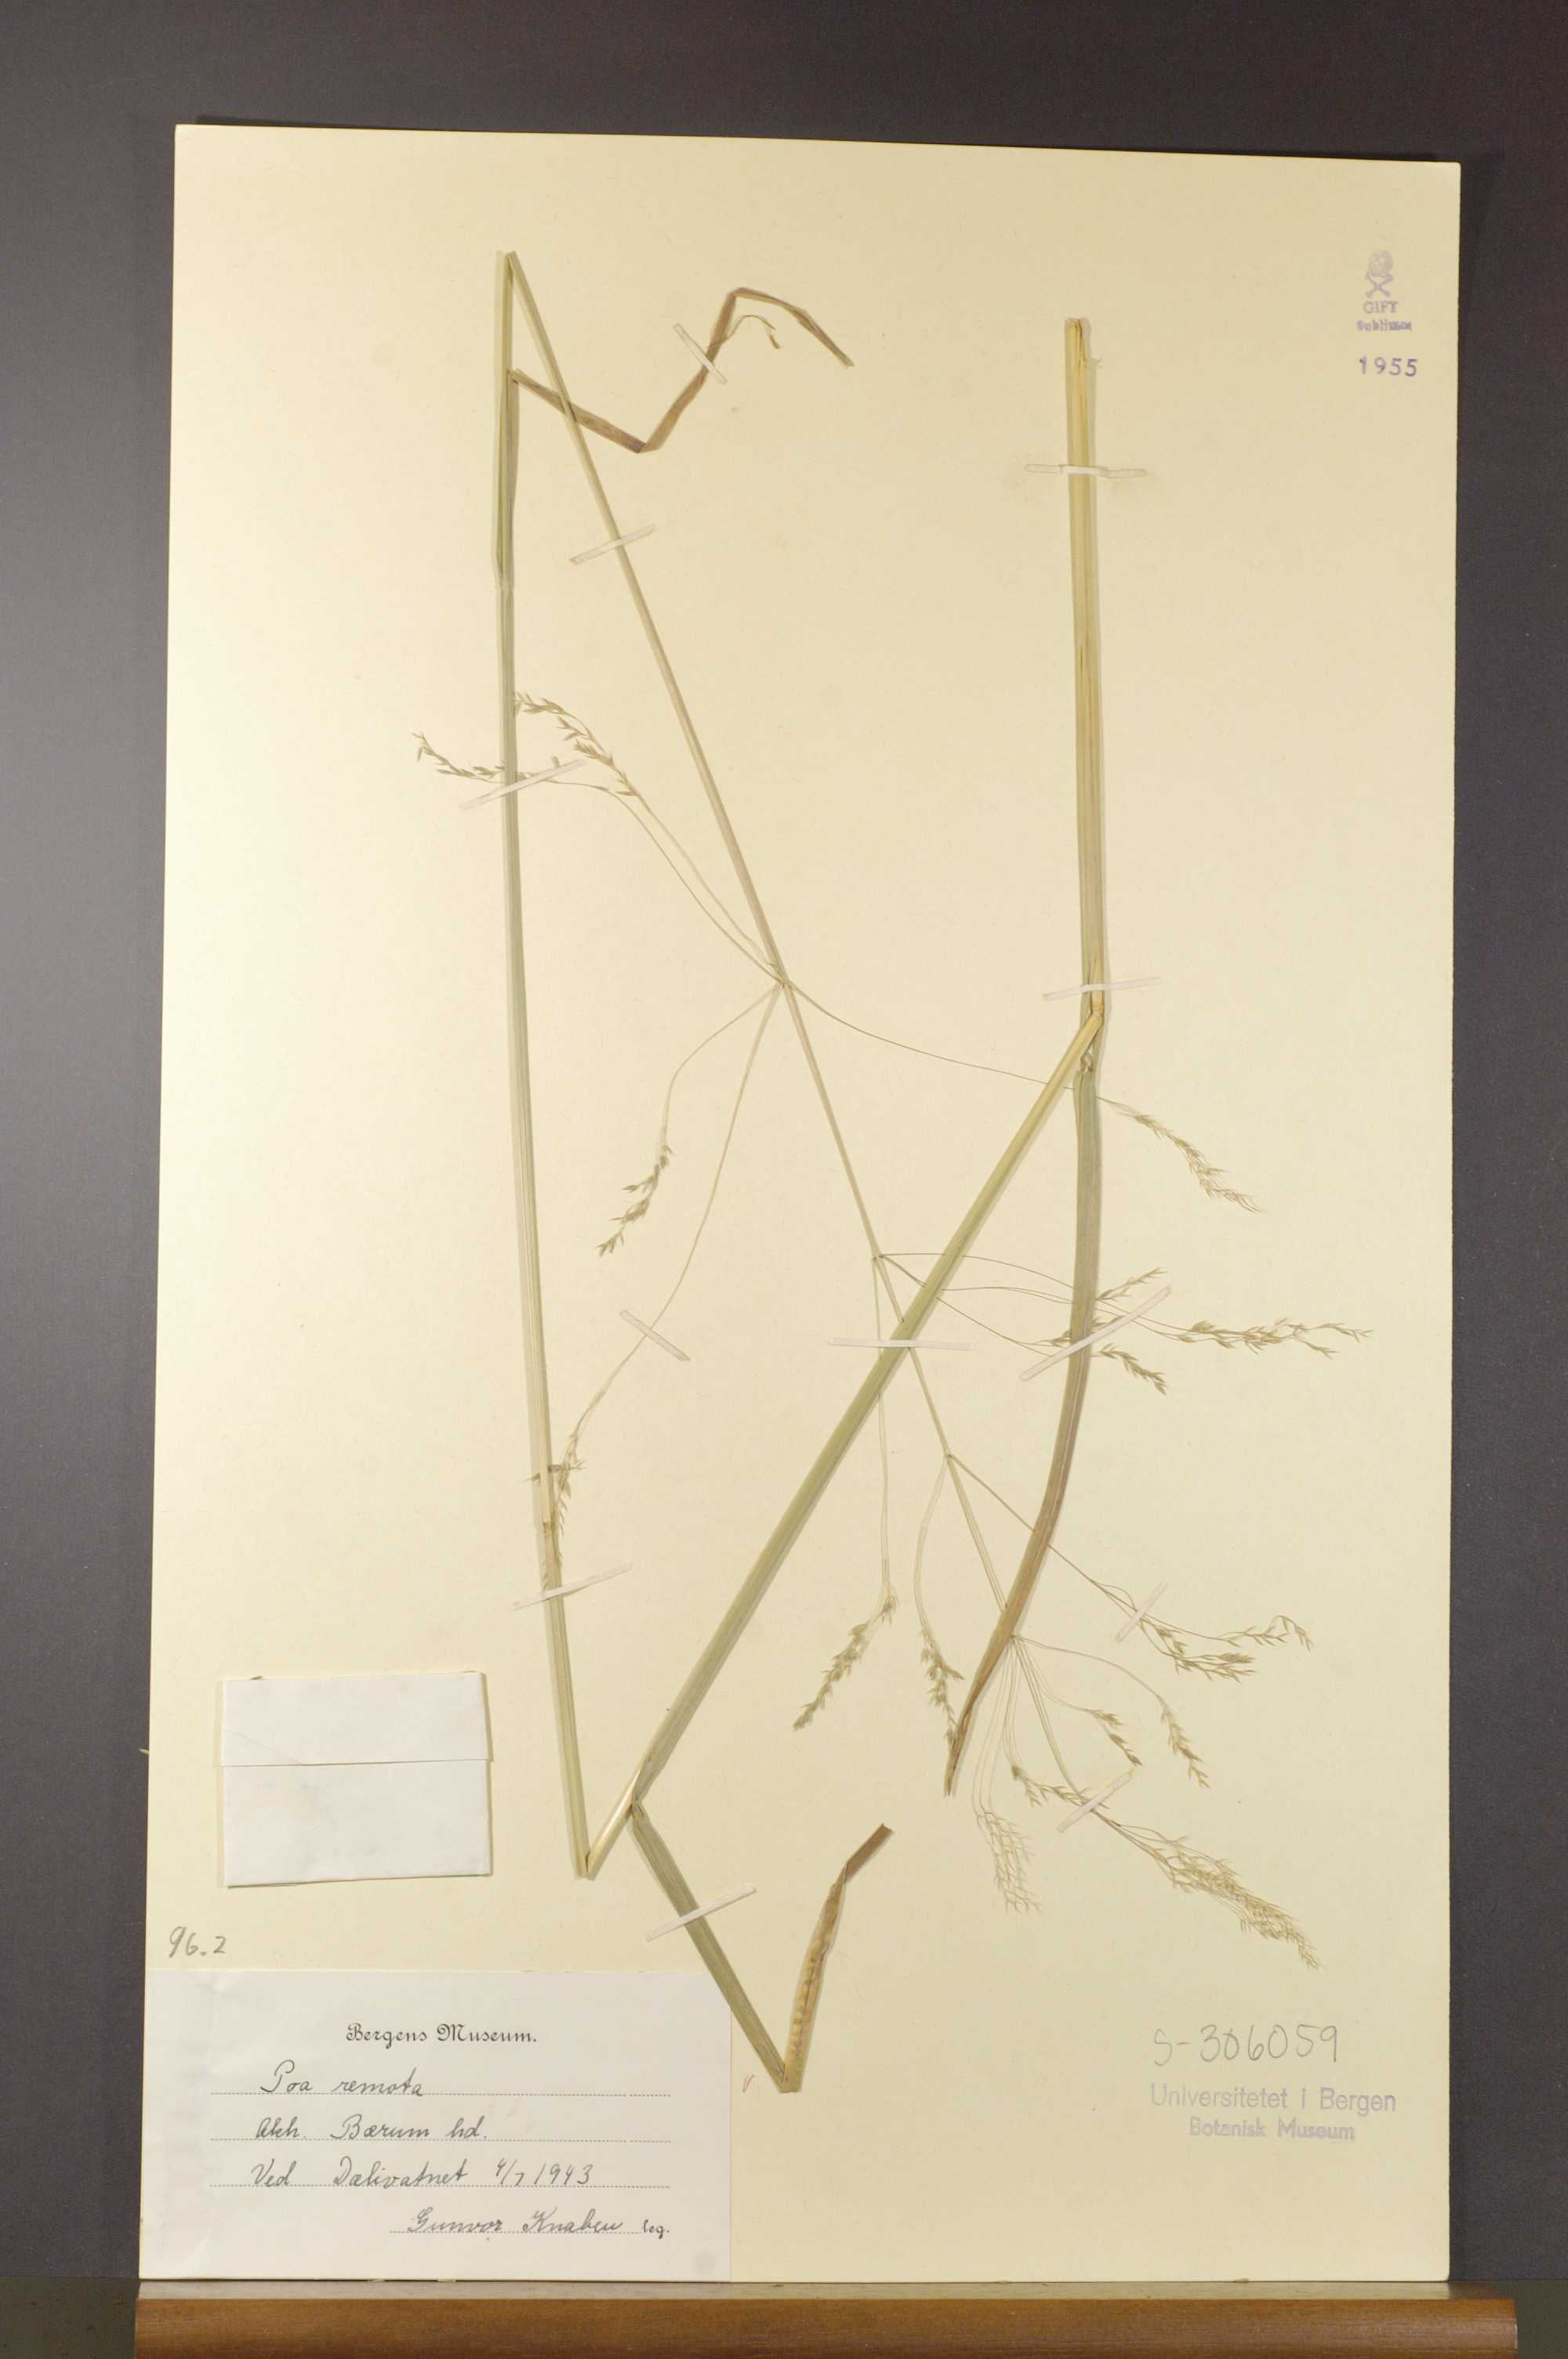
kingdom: Plantae
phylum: Tracheophyta
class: Liliopsida
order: Poales
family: Poaceae
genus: Poa
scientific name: Poa remota
